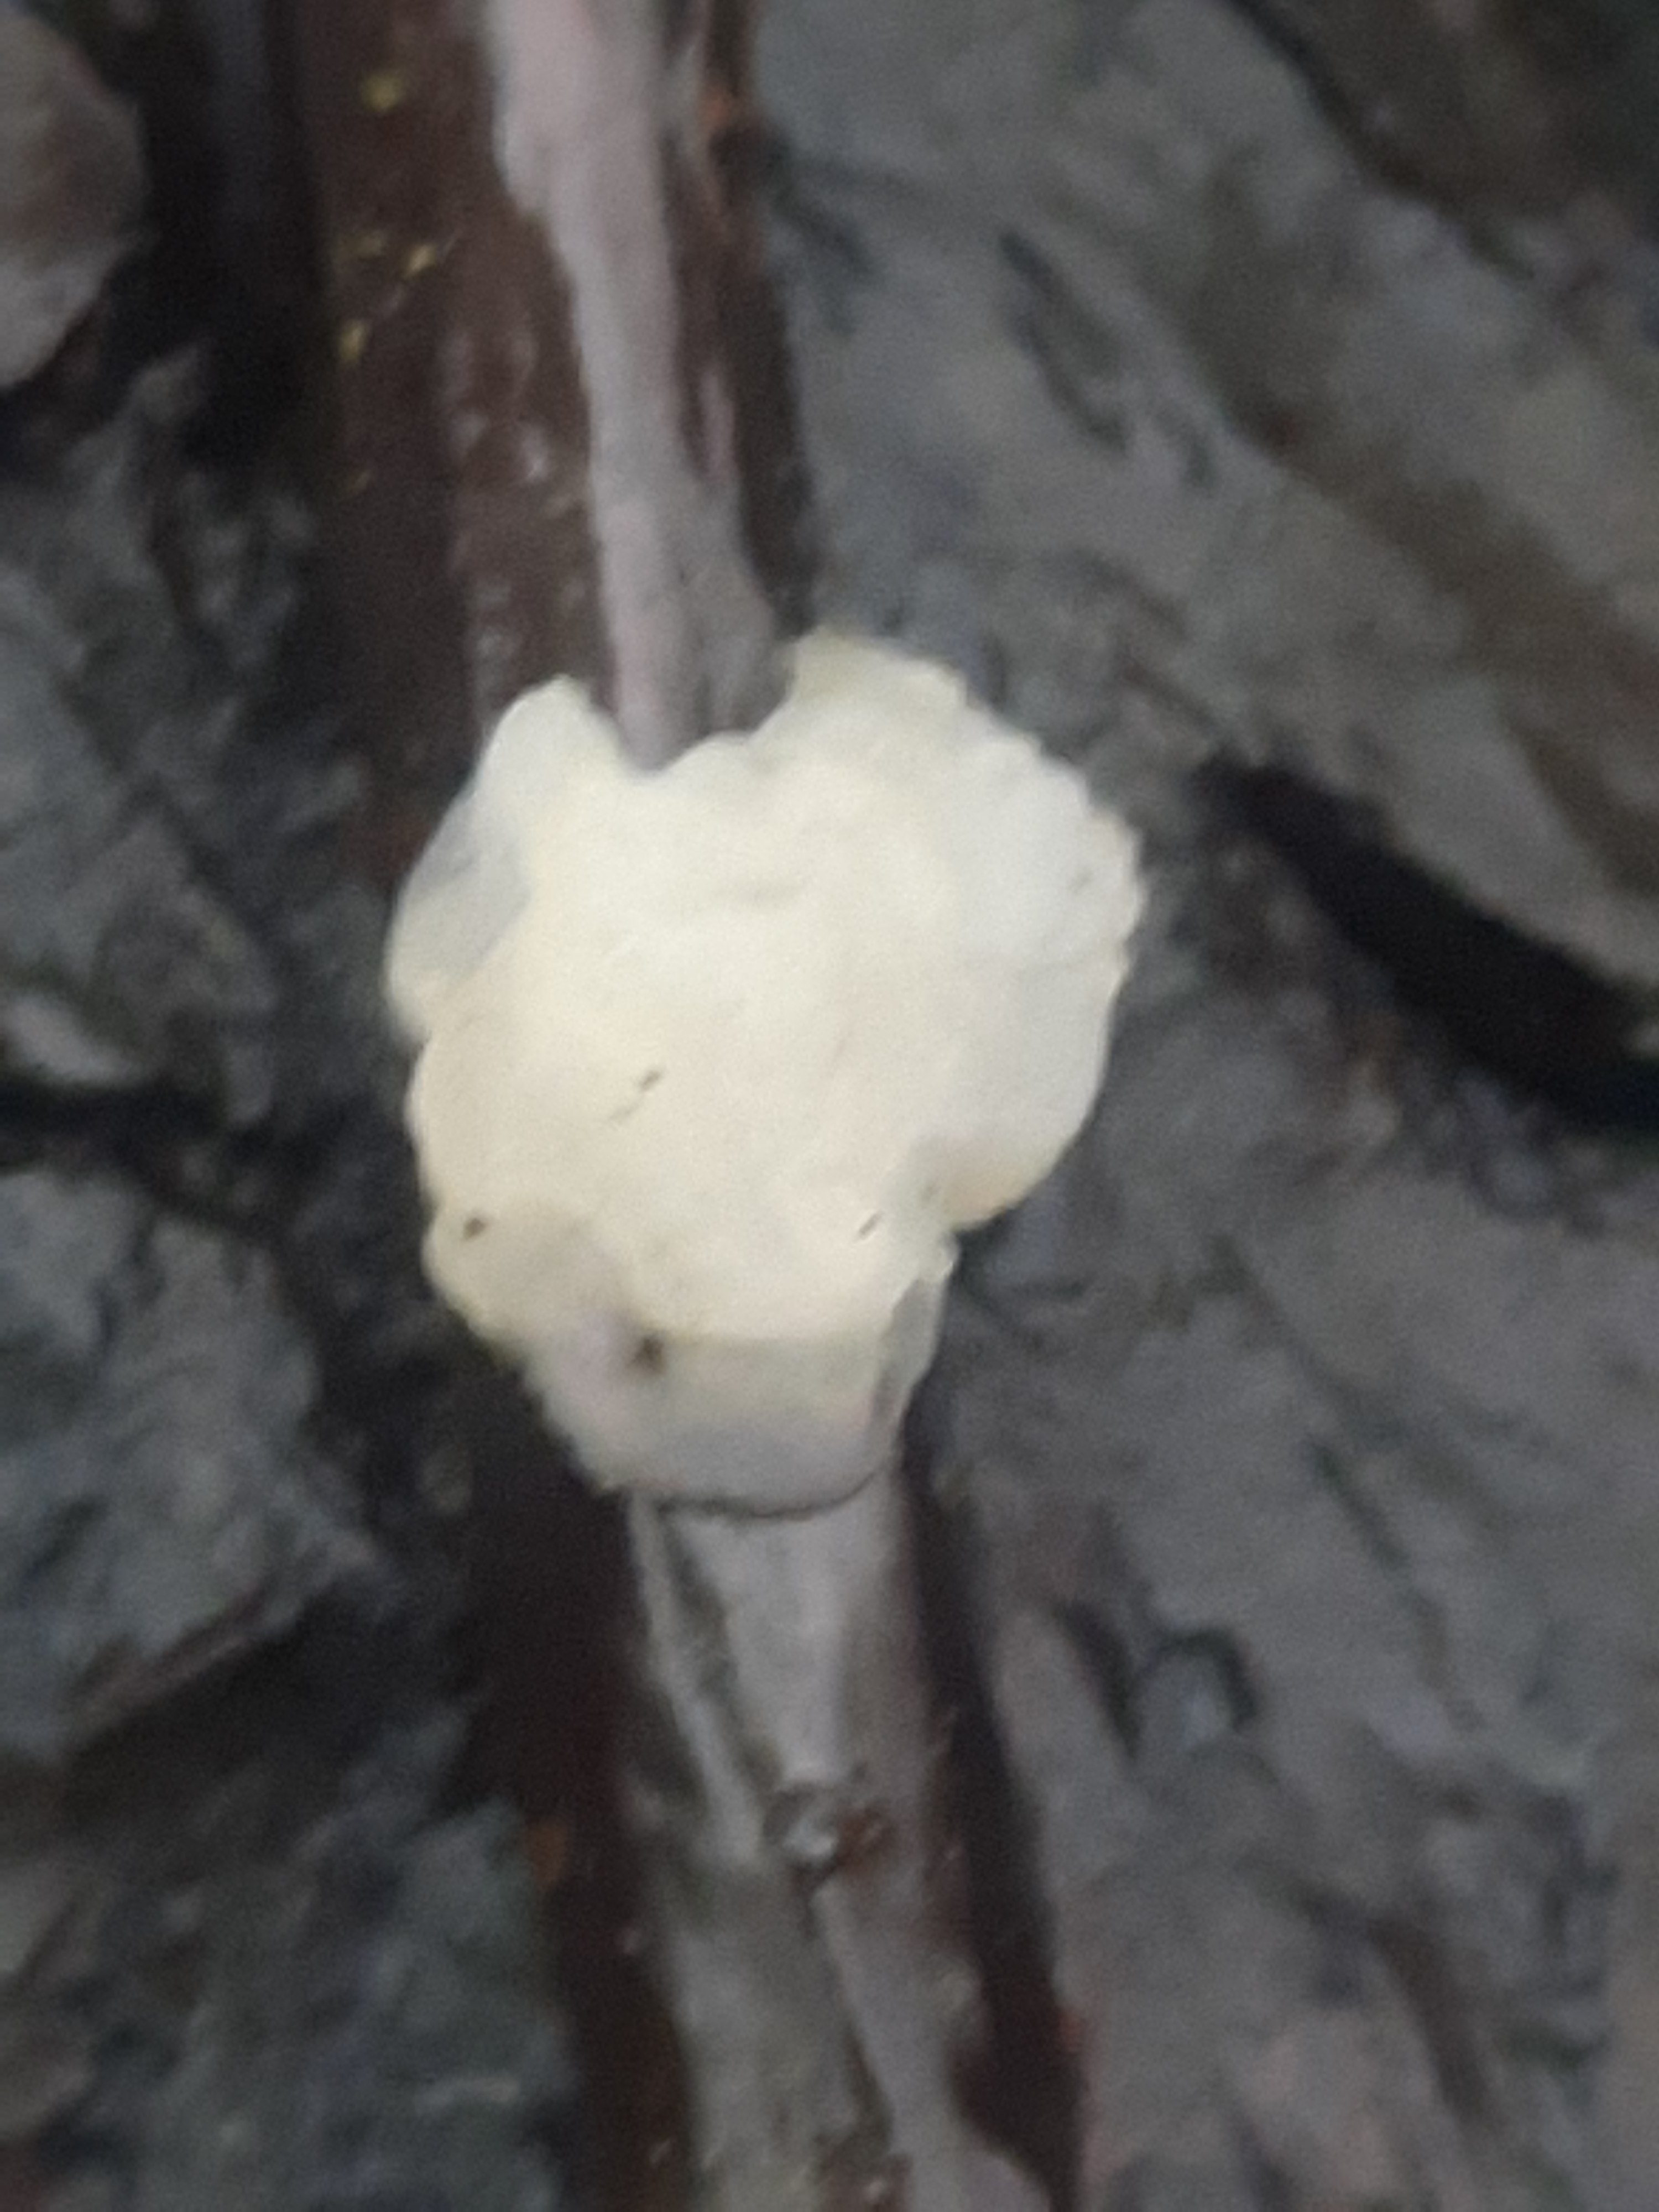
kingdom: Fungi
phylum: Basidiomycota
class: Agaricomycetes
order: Auriculariales
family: Hyaloriaceae
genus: Myxarium
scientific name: Myxarium nucleatum
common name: klar bævretop
